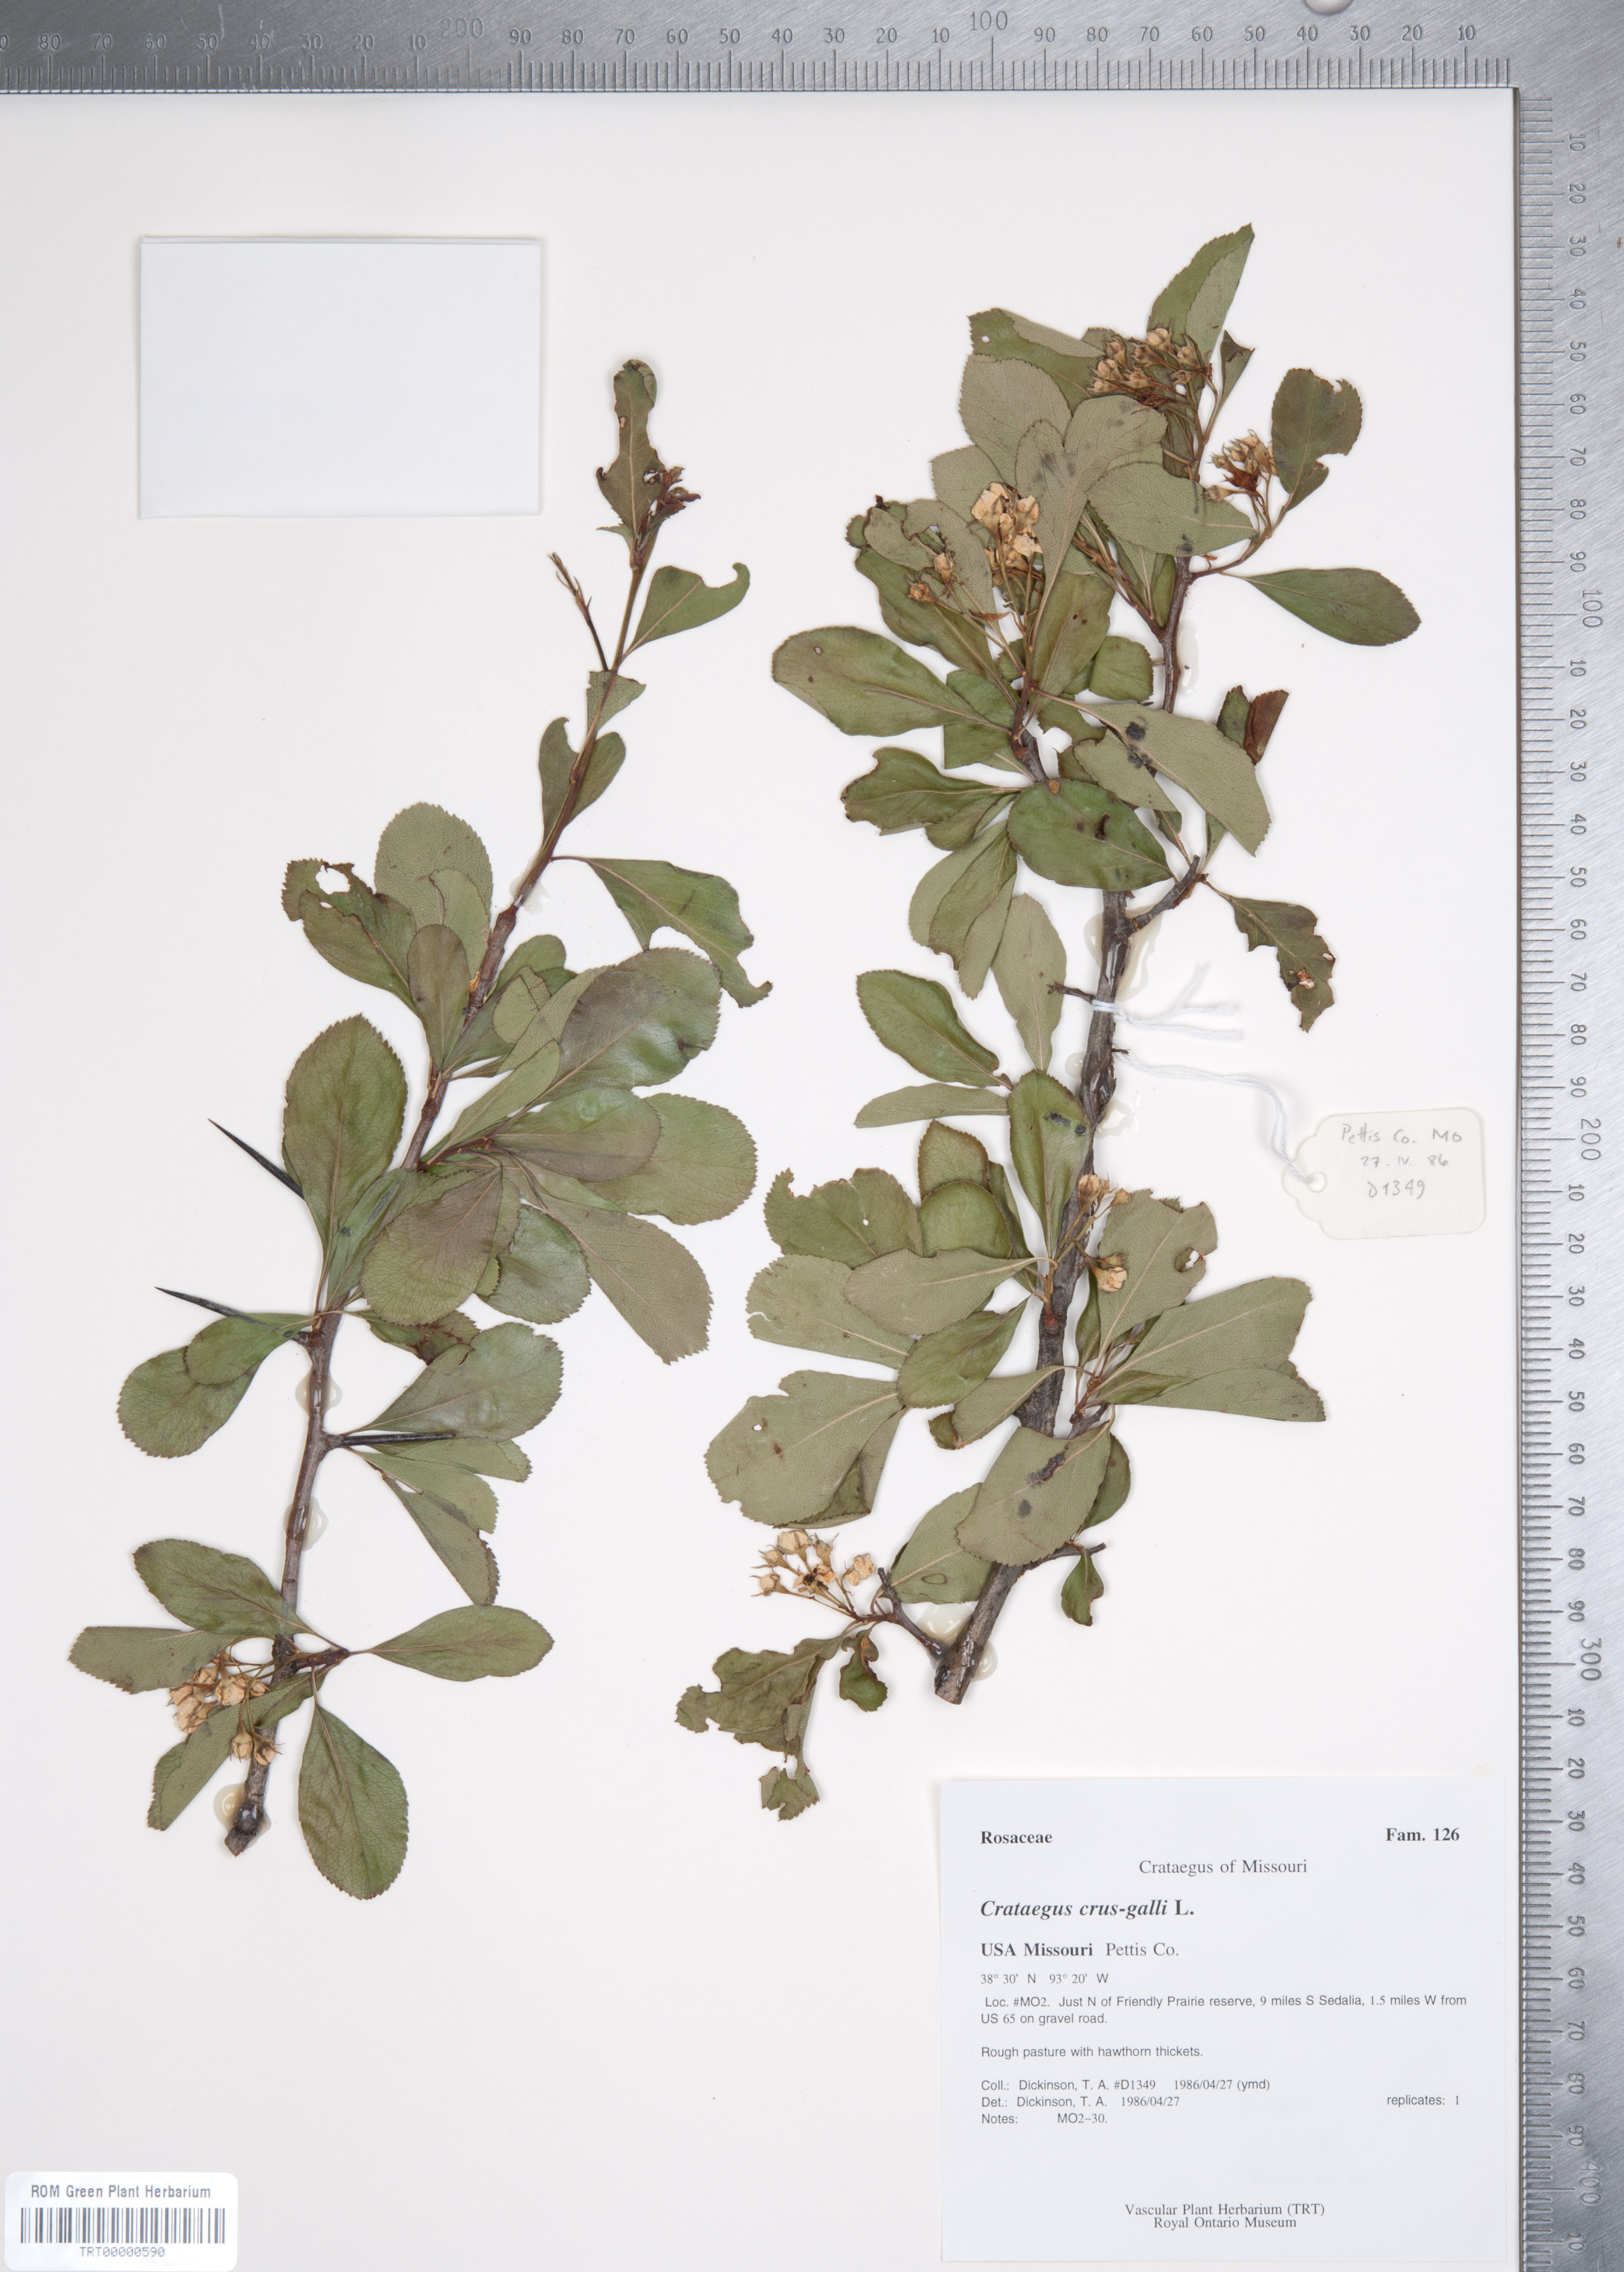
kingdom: Plantae
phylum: Tracheophyta
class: Magnoliopsida
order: Rosales
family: Rosaceae
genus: Crataegus
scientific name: Crataegus crus-galli
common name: Cockspurthorn
